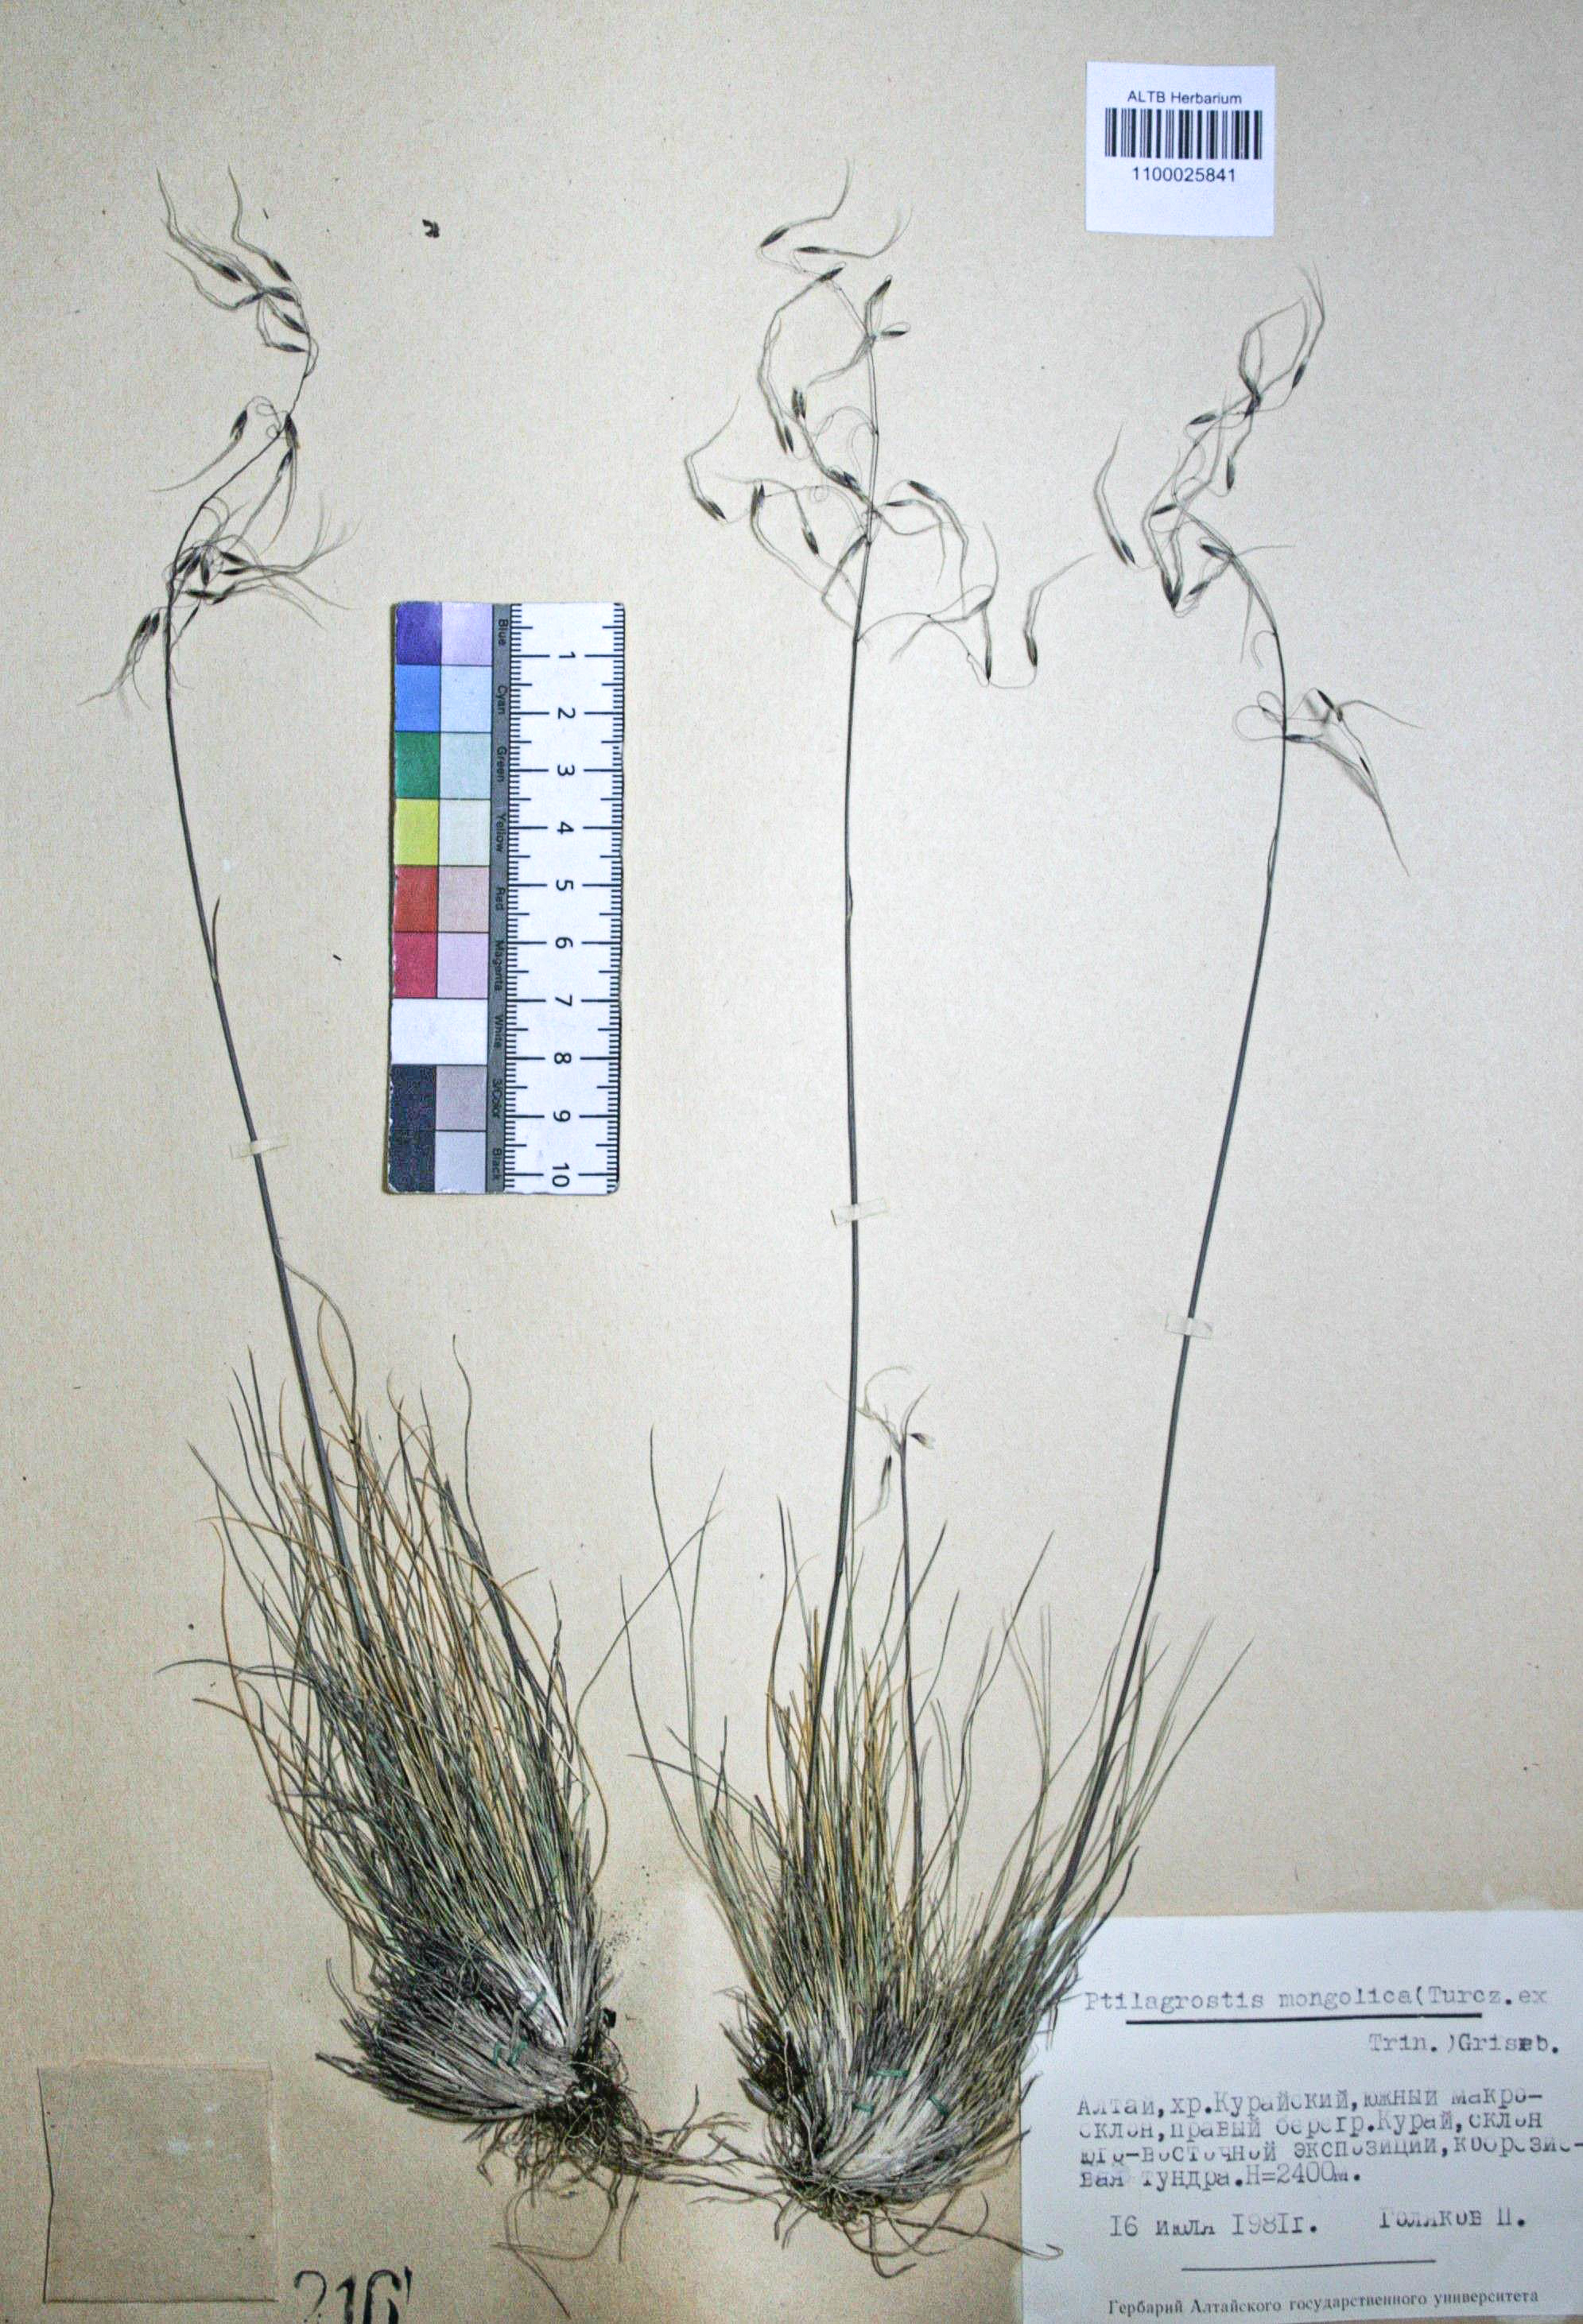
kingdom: Plantae
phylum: Tracheophyta
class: Liliopsida
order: Poales
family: Poaceae
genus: Ptilagrostis
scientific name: Ptilagrostis mongholica
